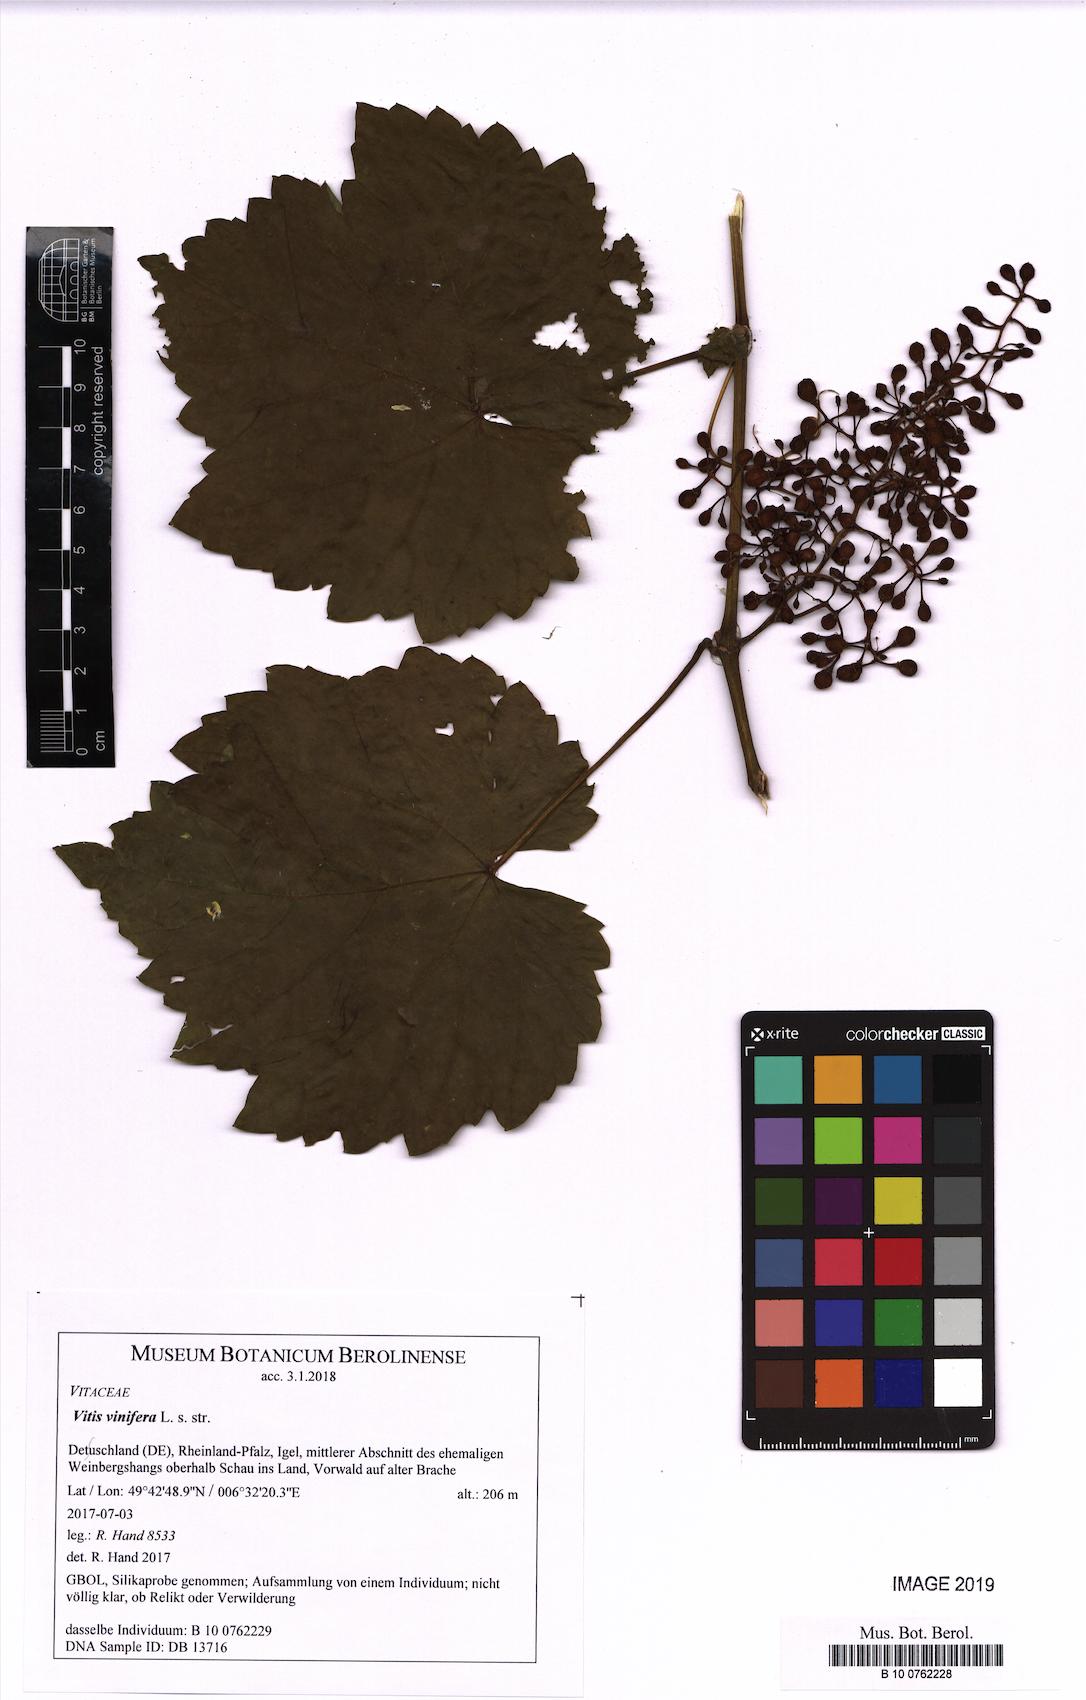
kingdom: Plantae
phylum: Tracheophyta
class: Magnoliopsida
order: Vitales
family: Vitaceae
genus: Vitis
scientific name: Vitis vinifera
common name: Grape-vine
